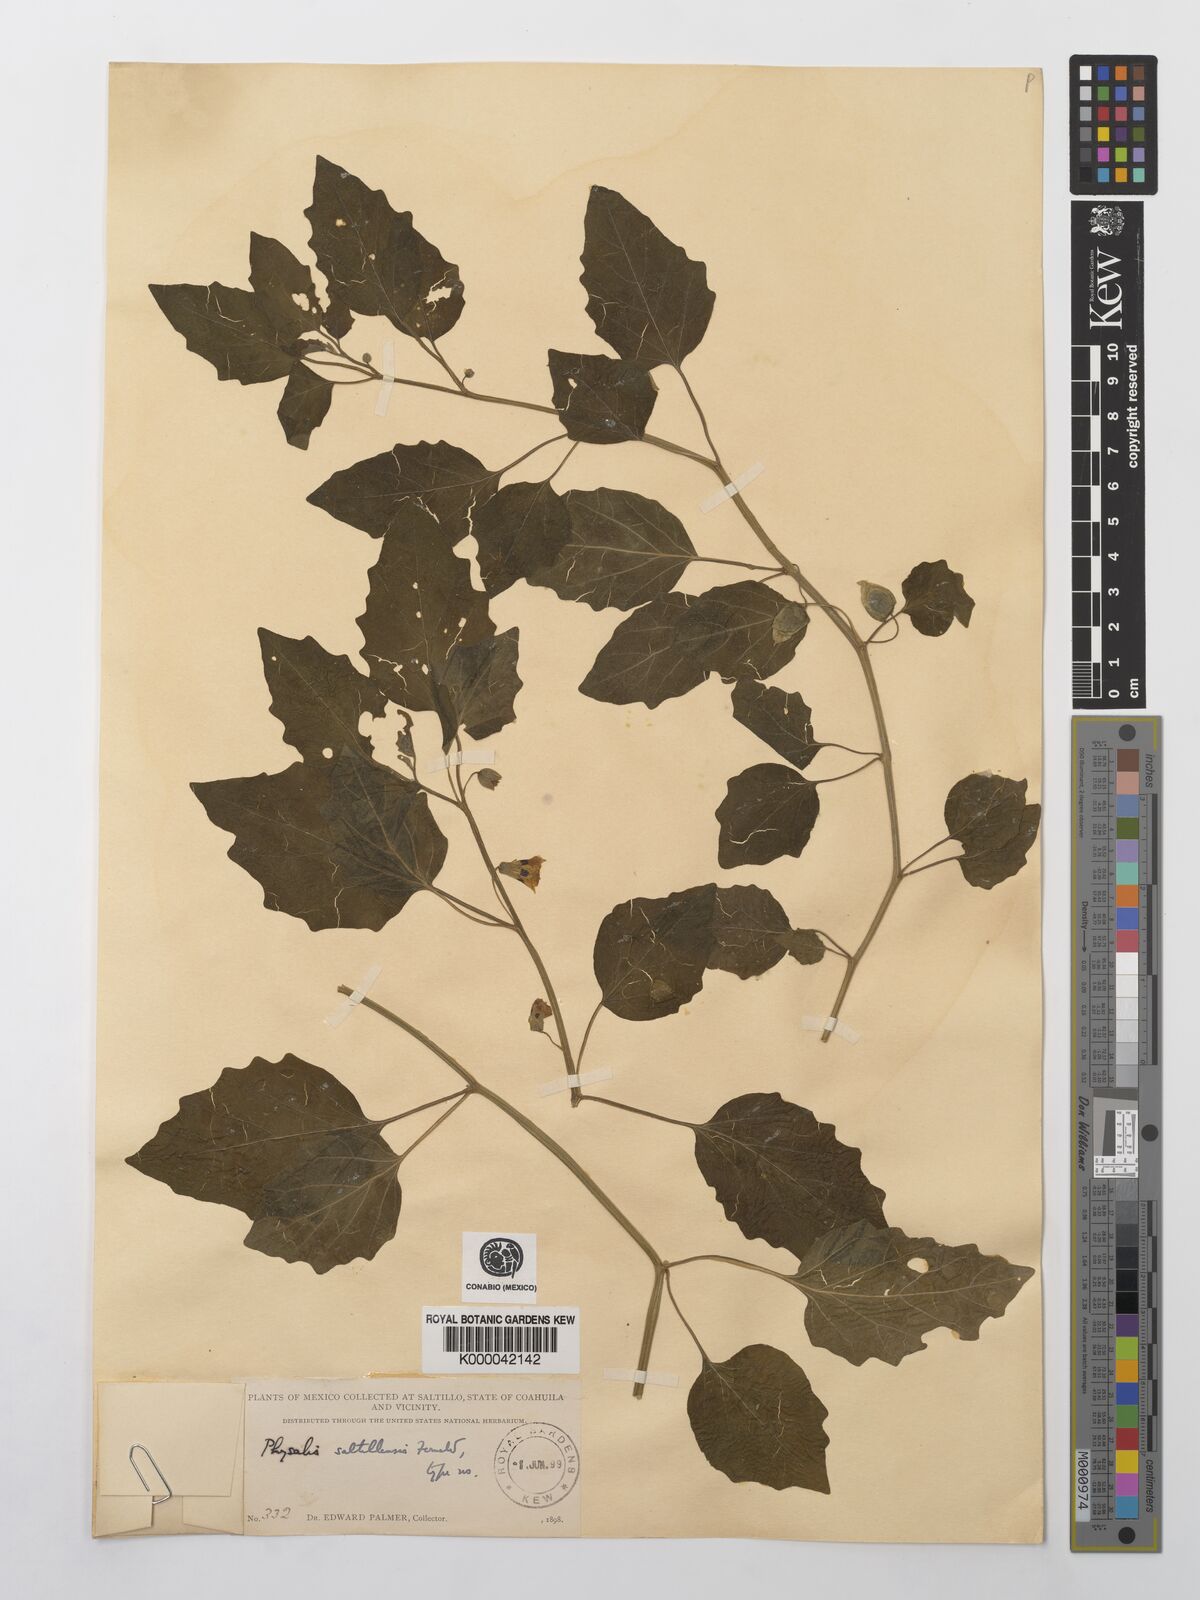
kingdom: Plantae
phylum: Tracheophyta
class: Magnoliopsida
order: Solanales
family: Solanaceae
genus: Physalis
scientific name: Physalis cinerascens
